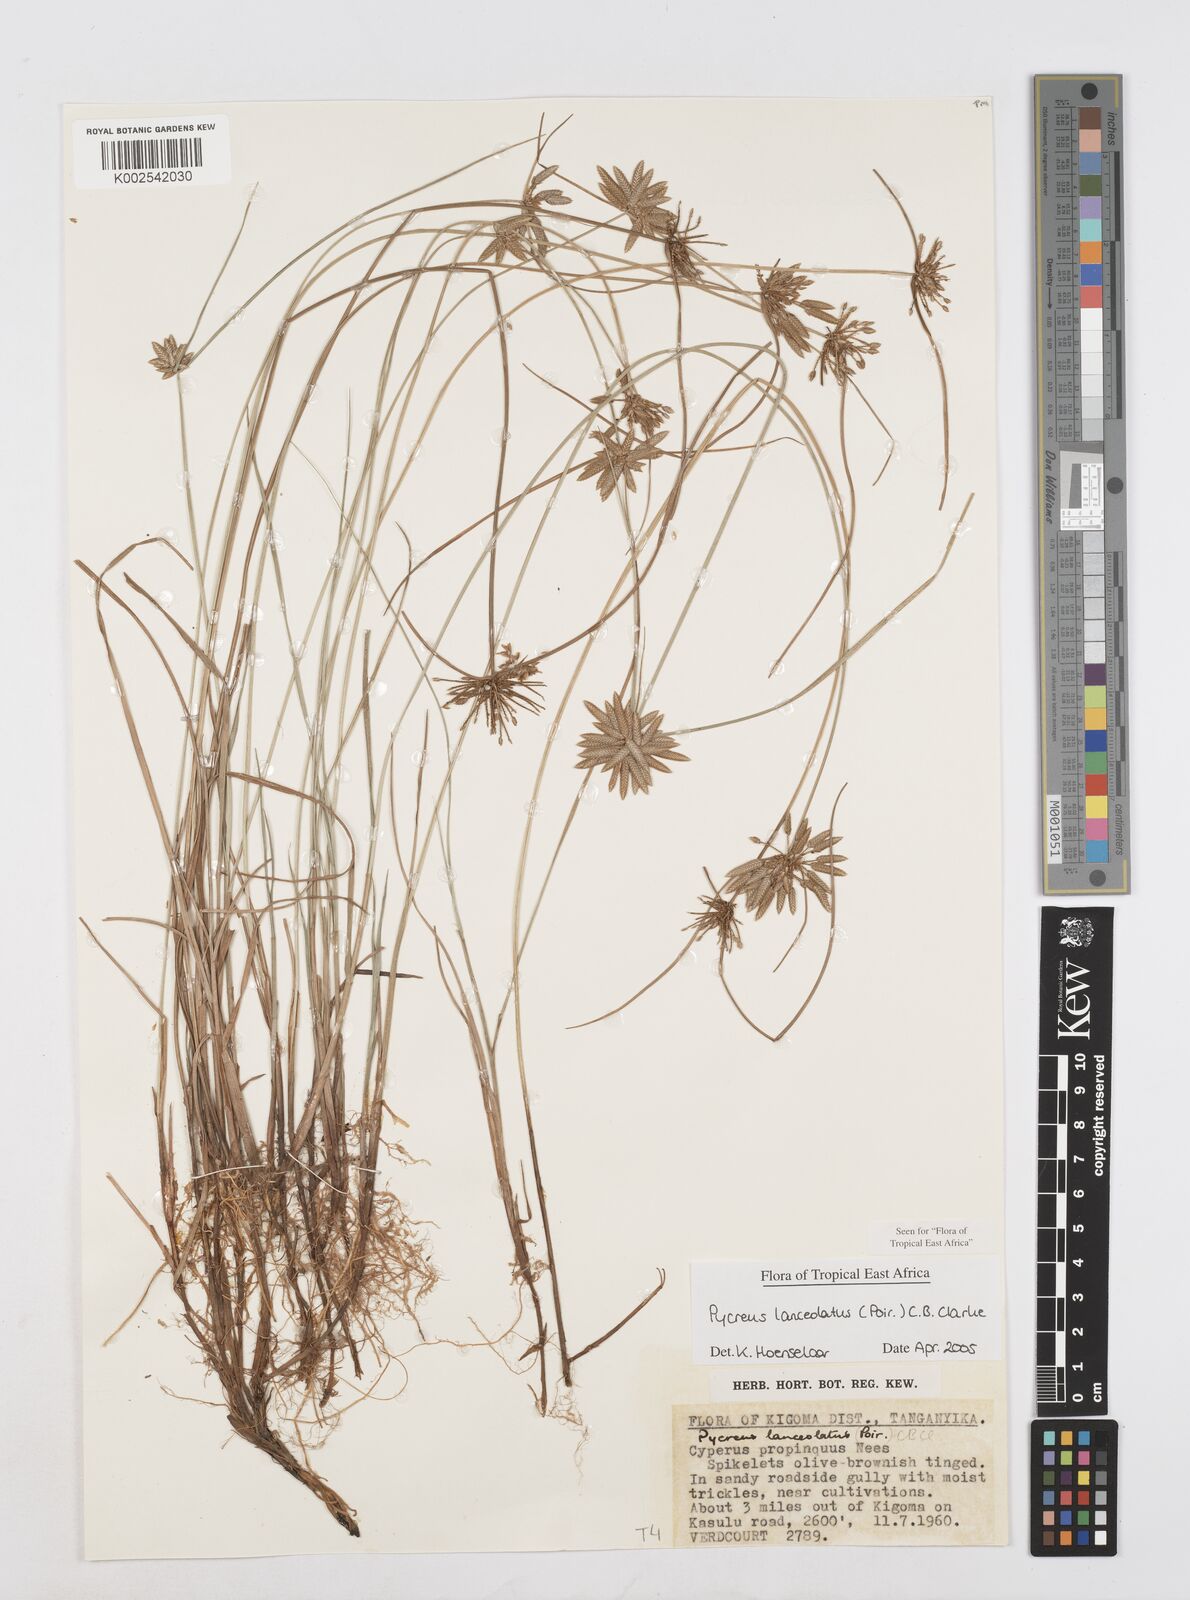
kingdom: Plantae
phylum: Tracheophyta
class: Liliopsida
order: Poales
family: Cyperaceae
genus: Cyperus
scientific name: Cyperus lanceolatus
